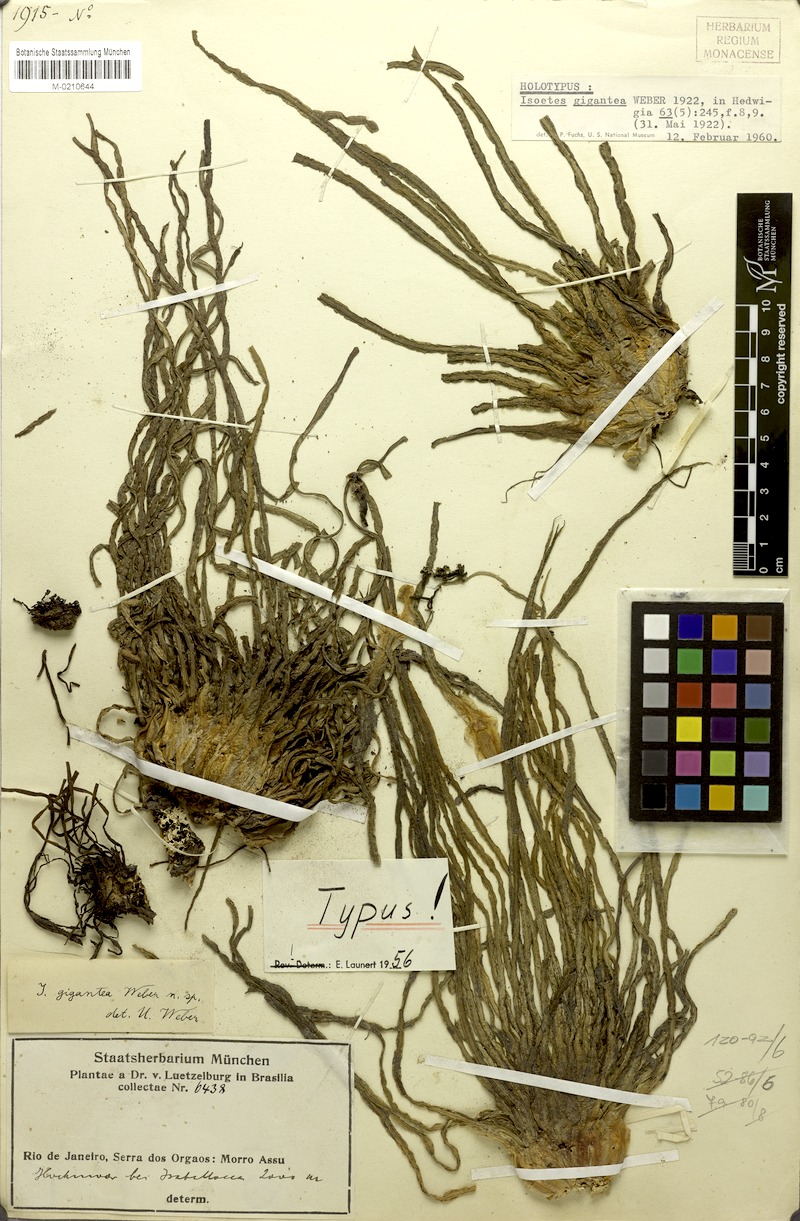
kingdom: Plantae
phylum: Tracheophyta
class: Lycopodiopsida
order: Isoetales
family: Isoetaceae
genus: Isoetes
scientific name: Isoetes gigantea
